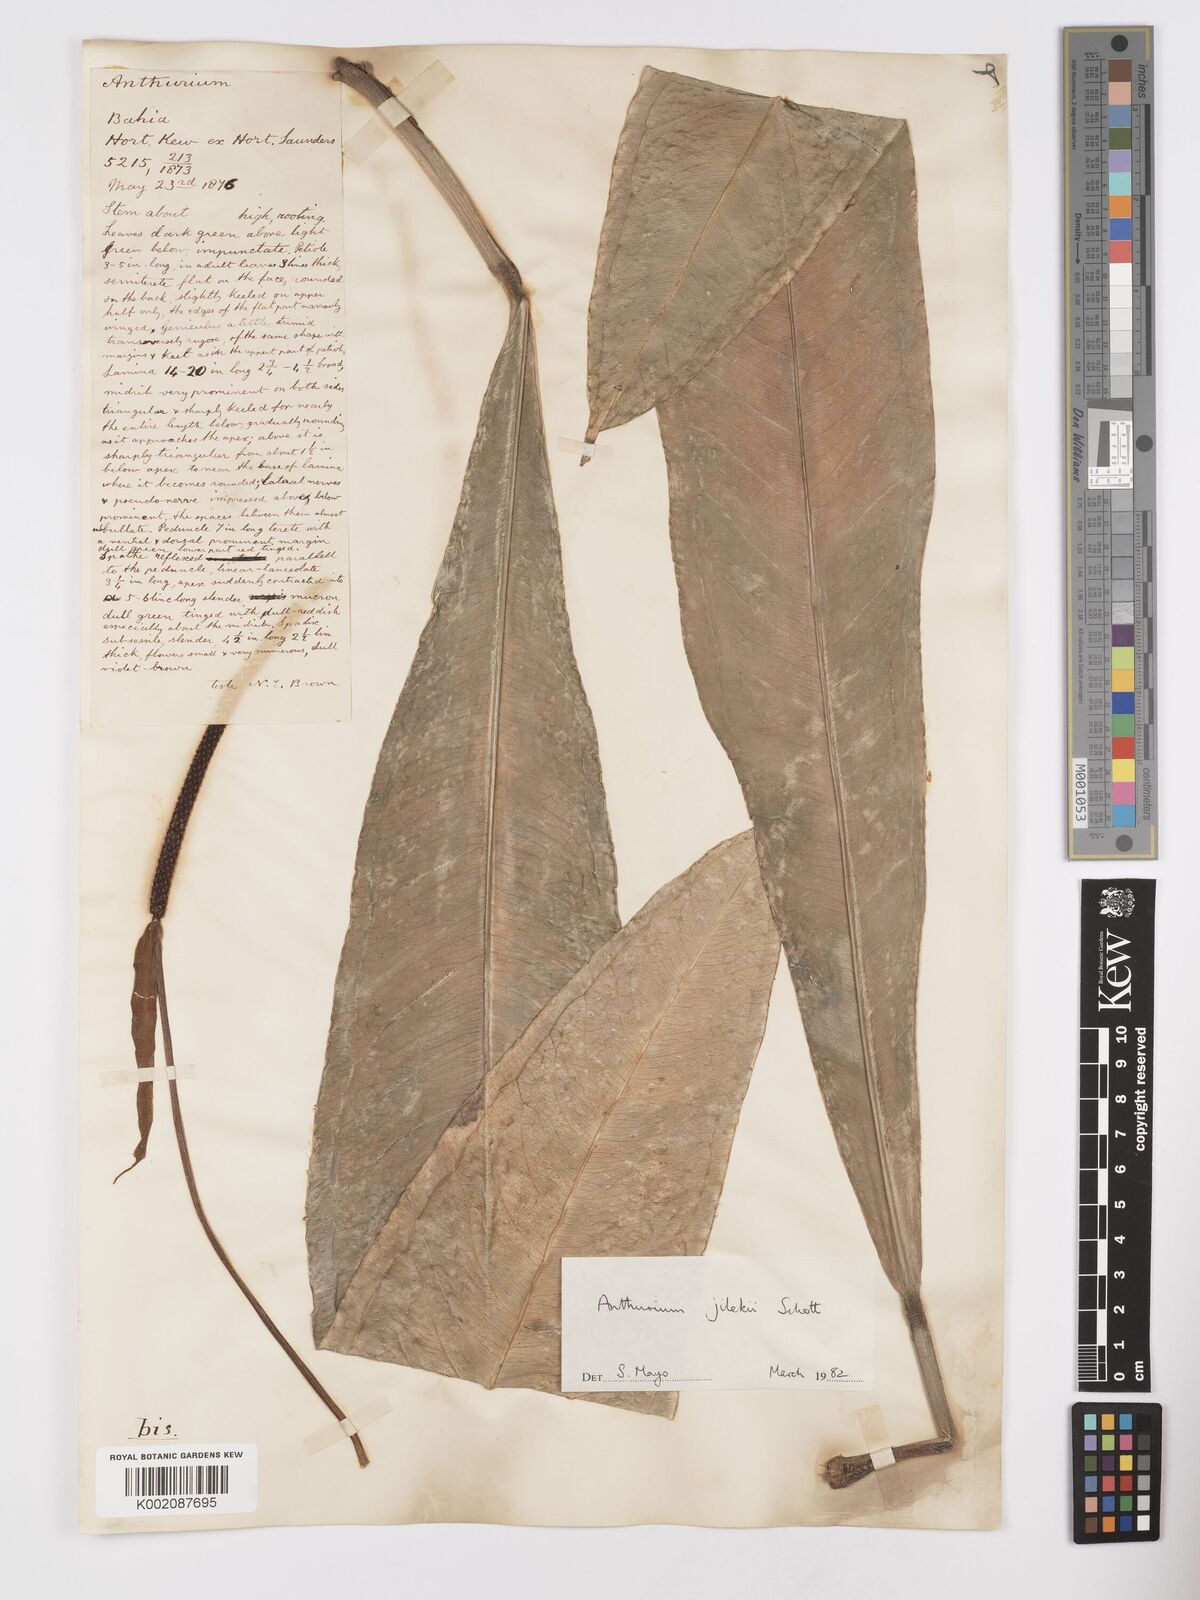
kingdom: Plantae
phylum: Tracheophyta
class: Liliopsida
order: Alismatales
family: Araceae
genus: Anthurium
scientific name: Anthurium jilekii
